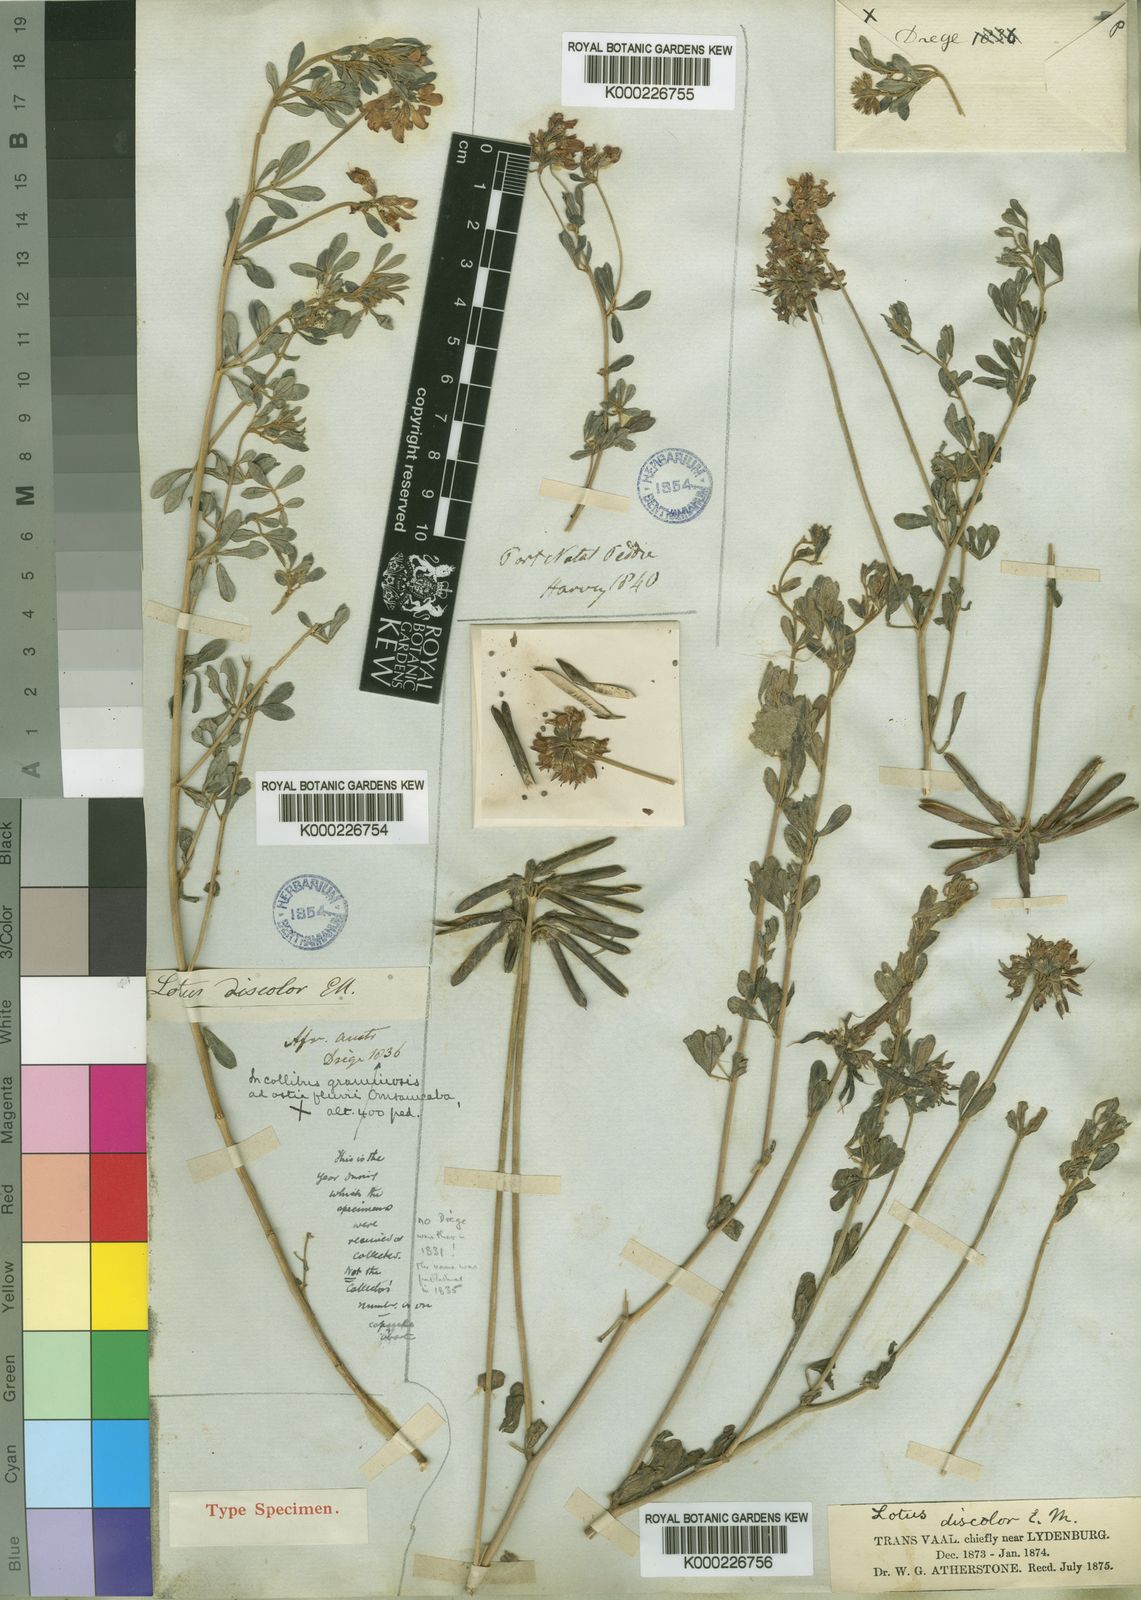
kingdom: Plantae
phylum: Tracheophyta
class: Magnoliopsida
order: Fabales
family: Fabaceae
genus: Lotus
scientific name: Lotus discolor
